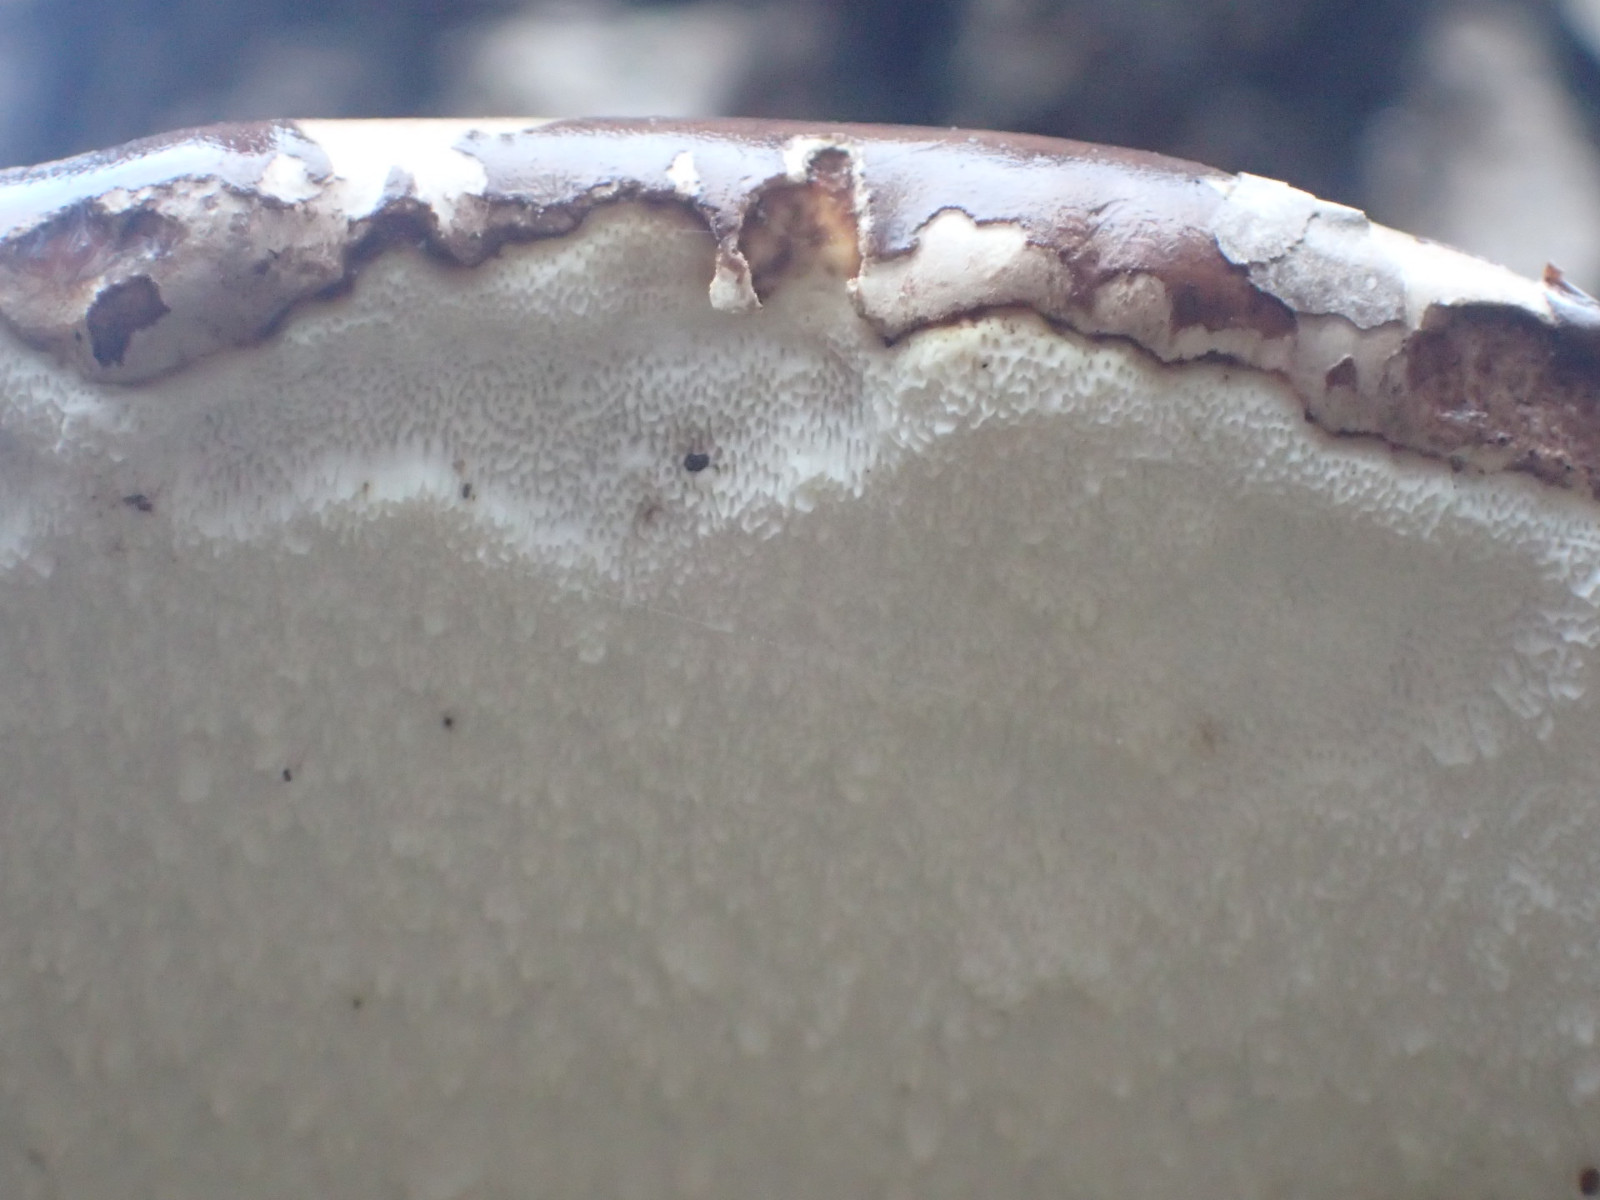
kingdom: Fungi
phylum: Basidiomycota
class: Agaricomycetes
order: Polyporales
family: Fomitopsidaceae
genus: Fomitopsis
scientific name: Fomitopsis betulina
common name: birkeporesvamp
